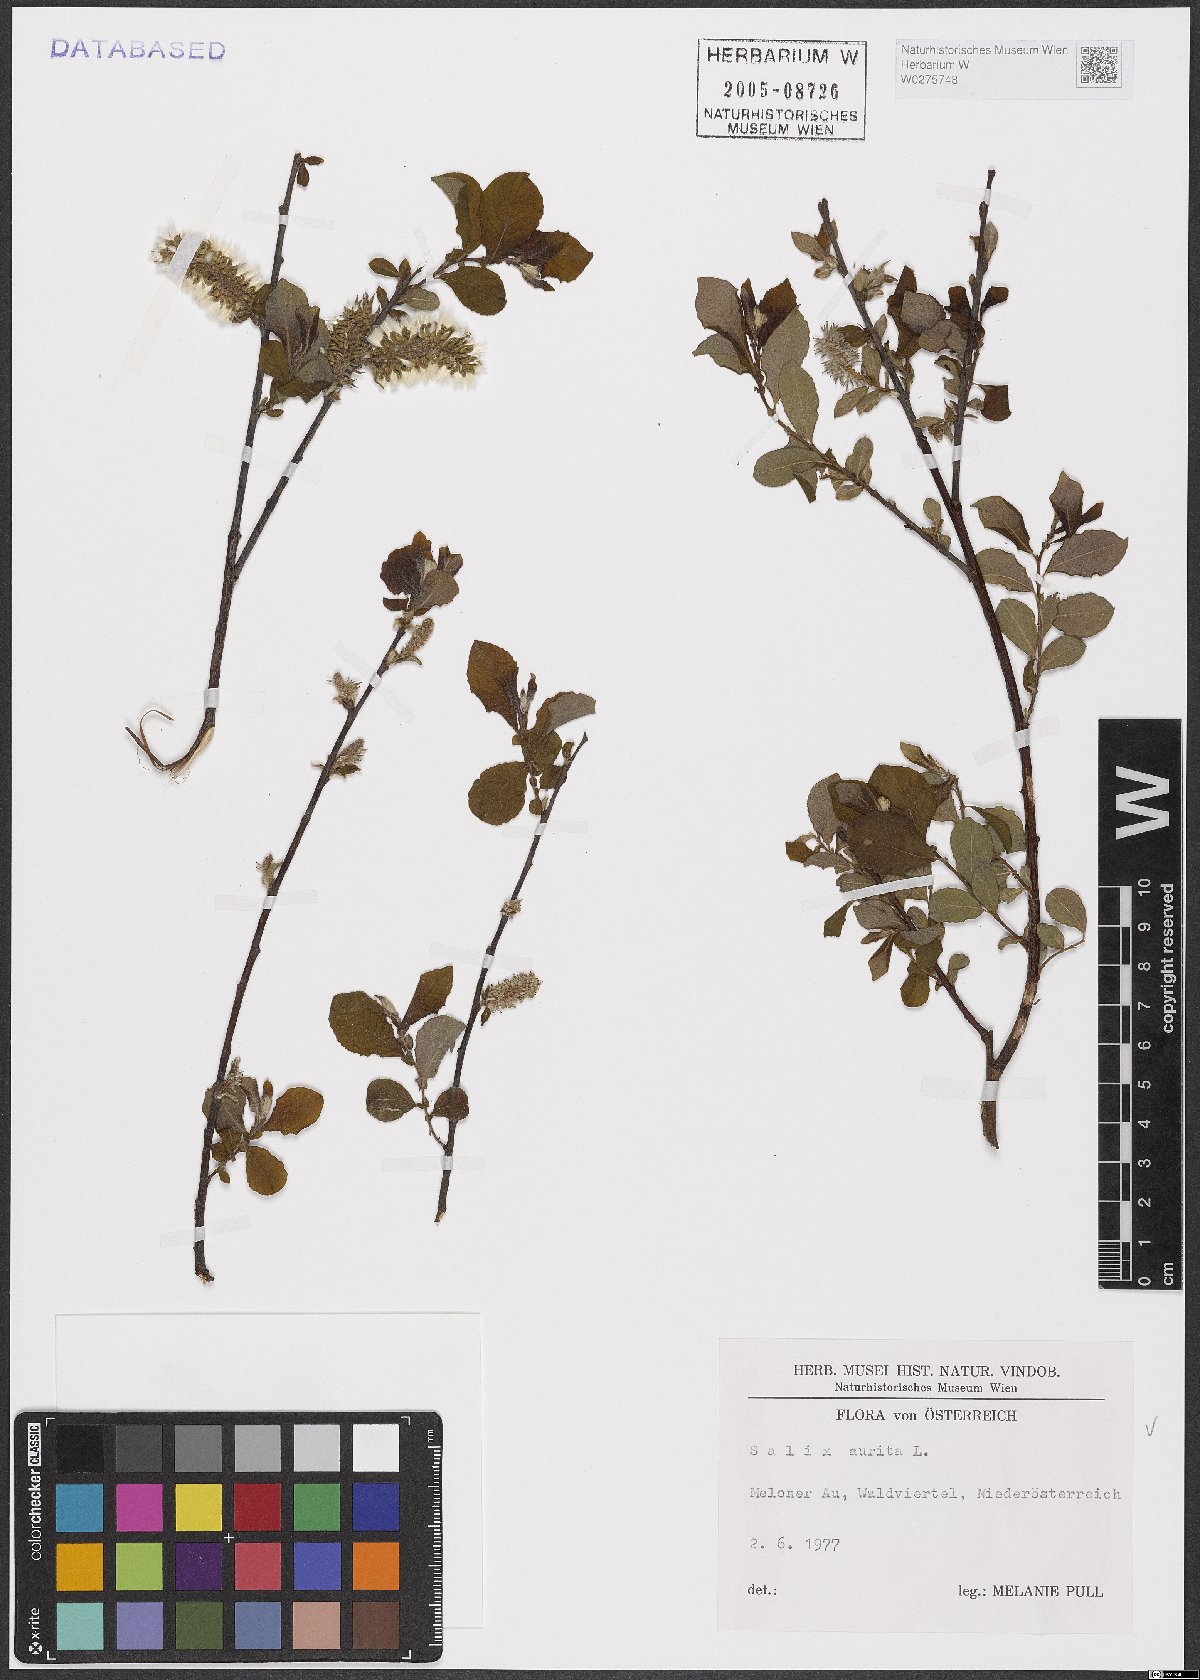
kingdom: Plantae
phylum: Tracheophyta
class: Magnoliopsida
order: Malpighiales
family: Salicaceae
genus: Salix
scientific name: Salix aurita
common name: Eared willow
